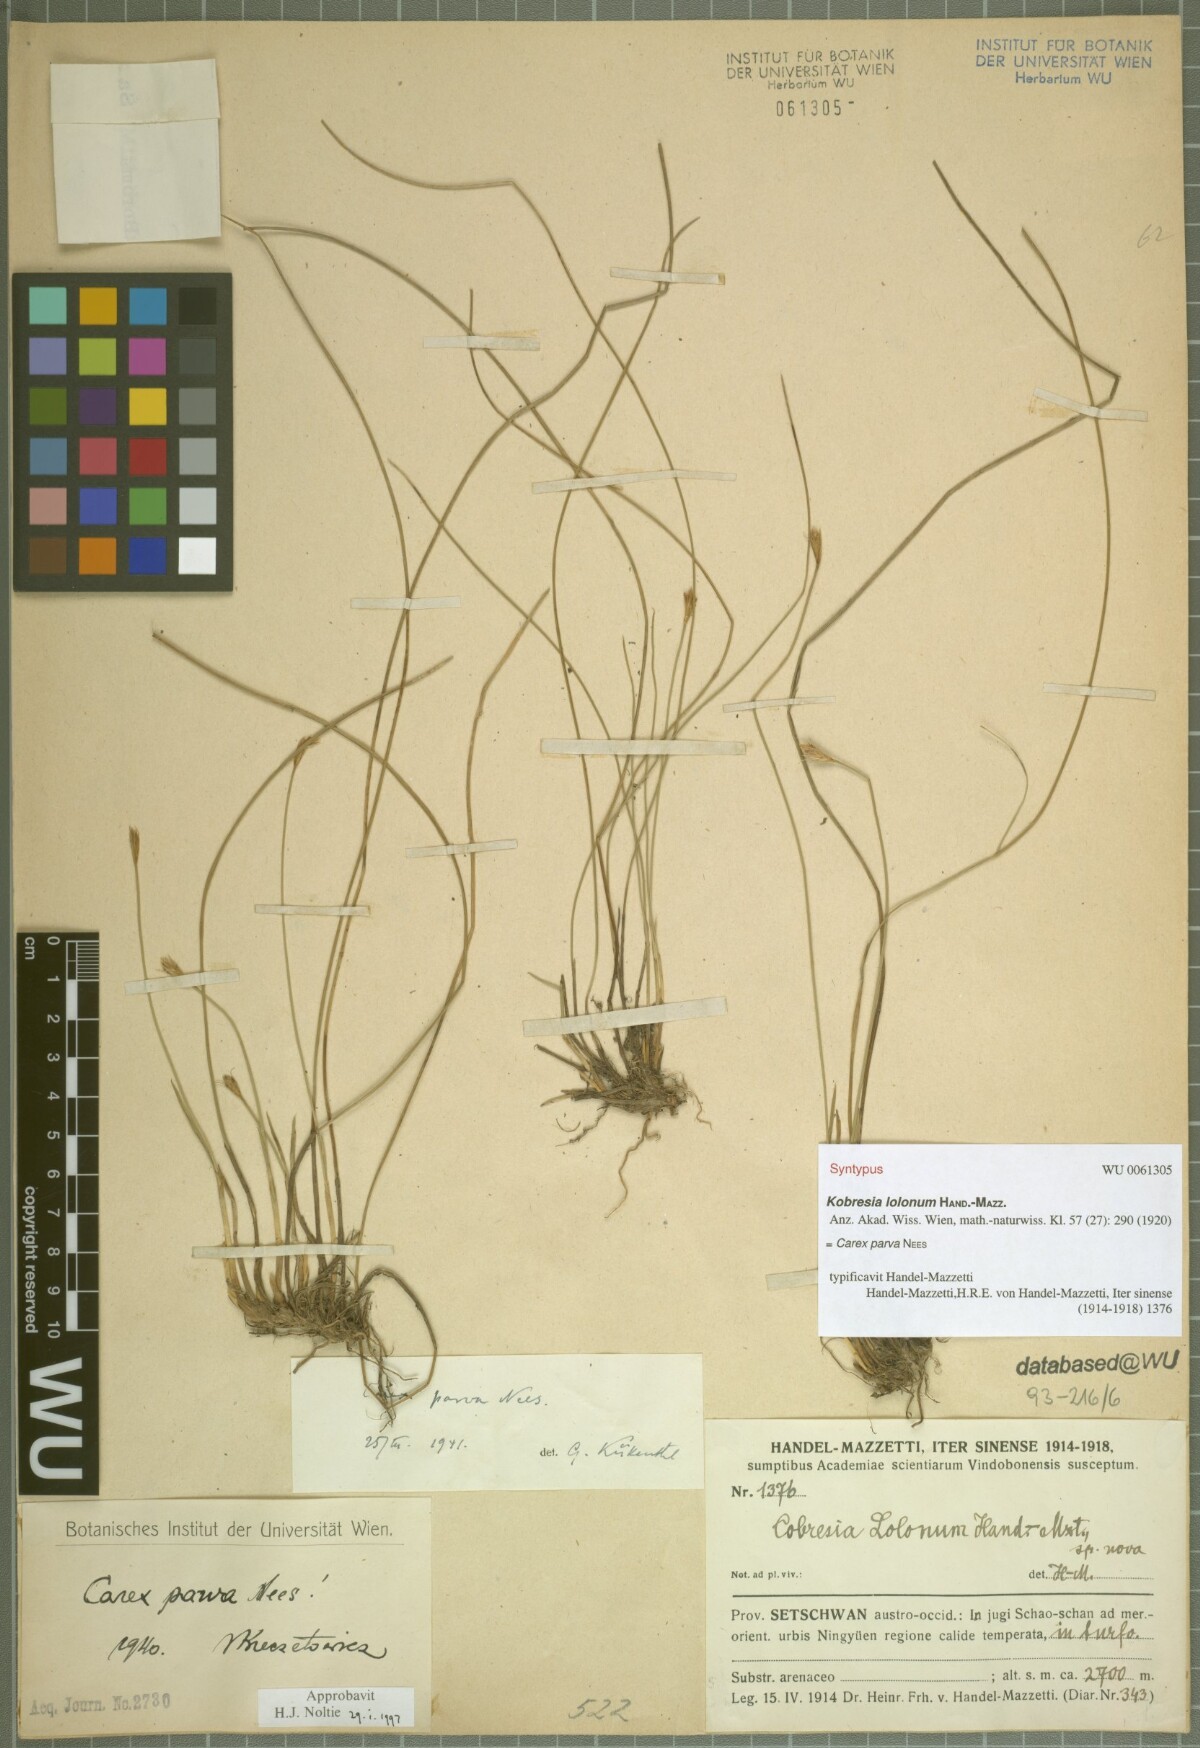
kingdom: Plantae
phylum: Tracheophyta
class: Liliopsida
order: Poales
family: Cyperaceae
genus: Carex
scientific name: Carex parva
